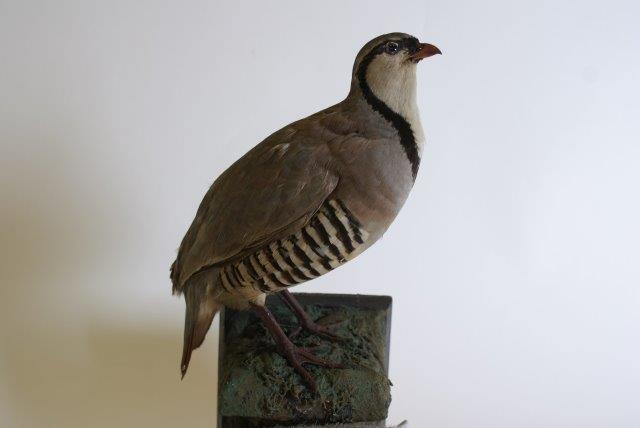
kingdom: Animalia
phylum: Chordata
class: Aves
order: Galliformes
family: Phasianidae
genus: Alectoris
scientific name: Alectoris graeca
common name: Steenpatrijs
